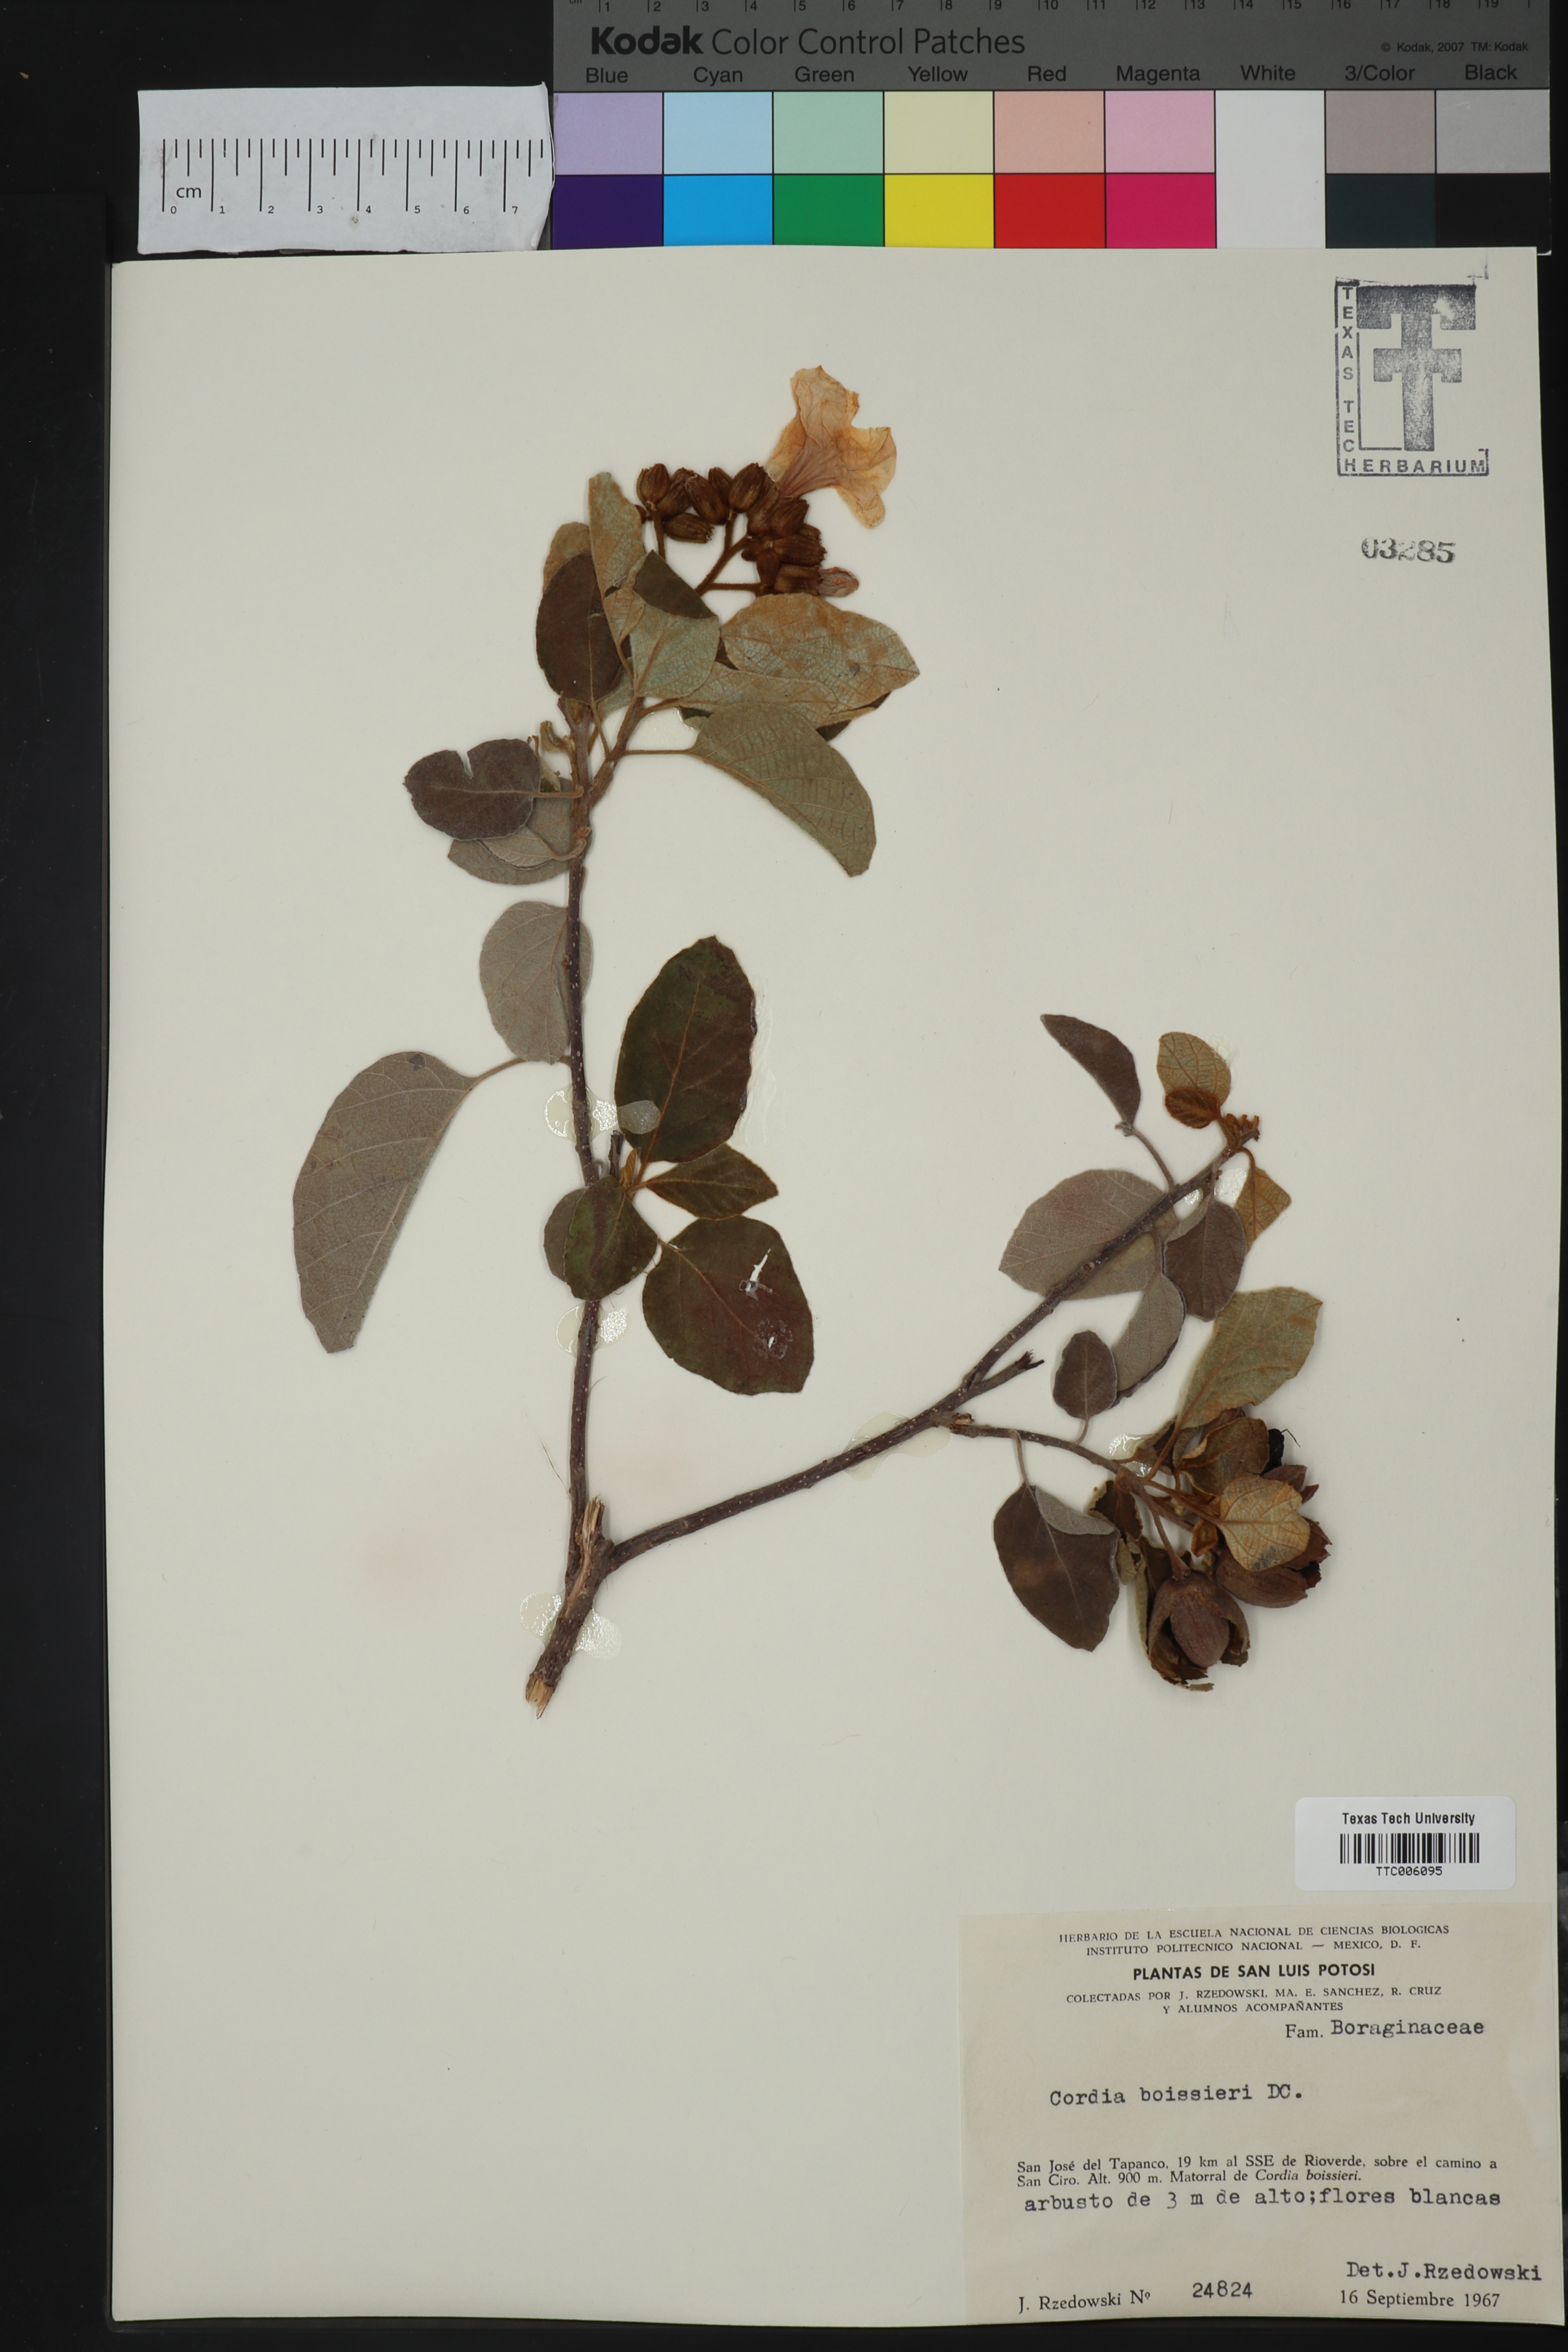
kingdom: Plantae
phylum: Tracheophyta
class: Magnoliopsida
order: Boraginales
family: Cordiaceae
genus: Cordia
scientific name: Cordia boissieri
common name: Mexican-olive
